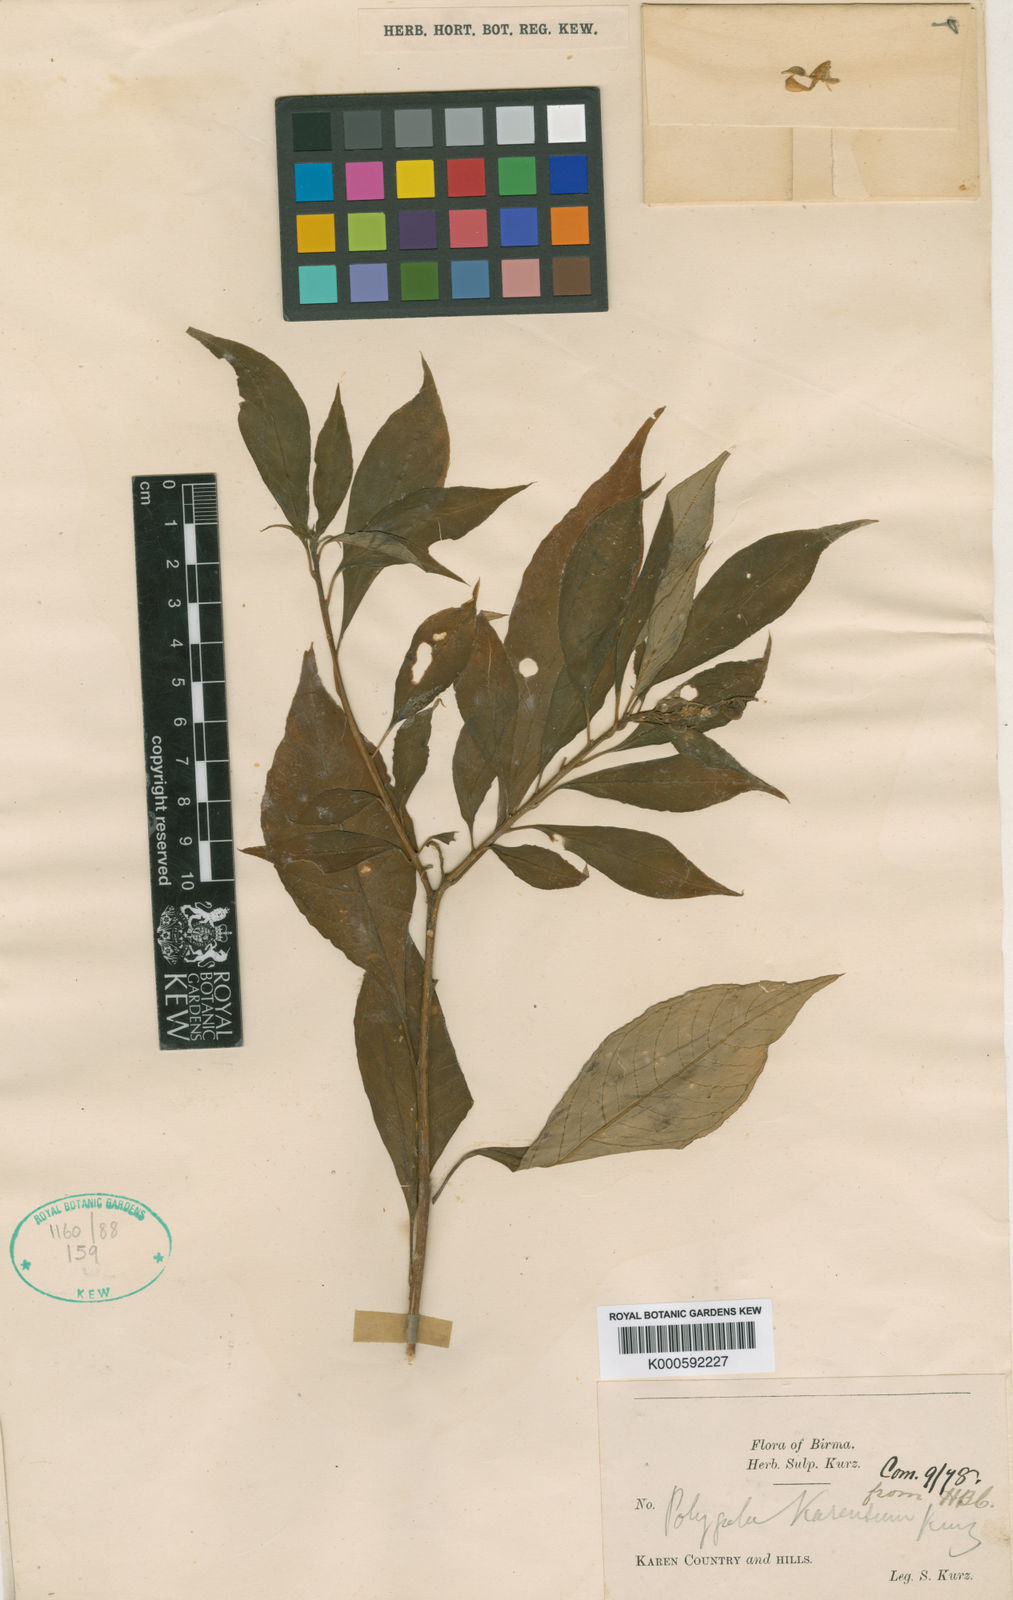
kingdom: Plantae
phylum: Tracheophyta
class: Magnoliopsida
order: Fabales
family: Polygalaceae
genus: Polygala
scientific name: Polygala karensium
